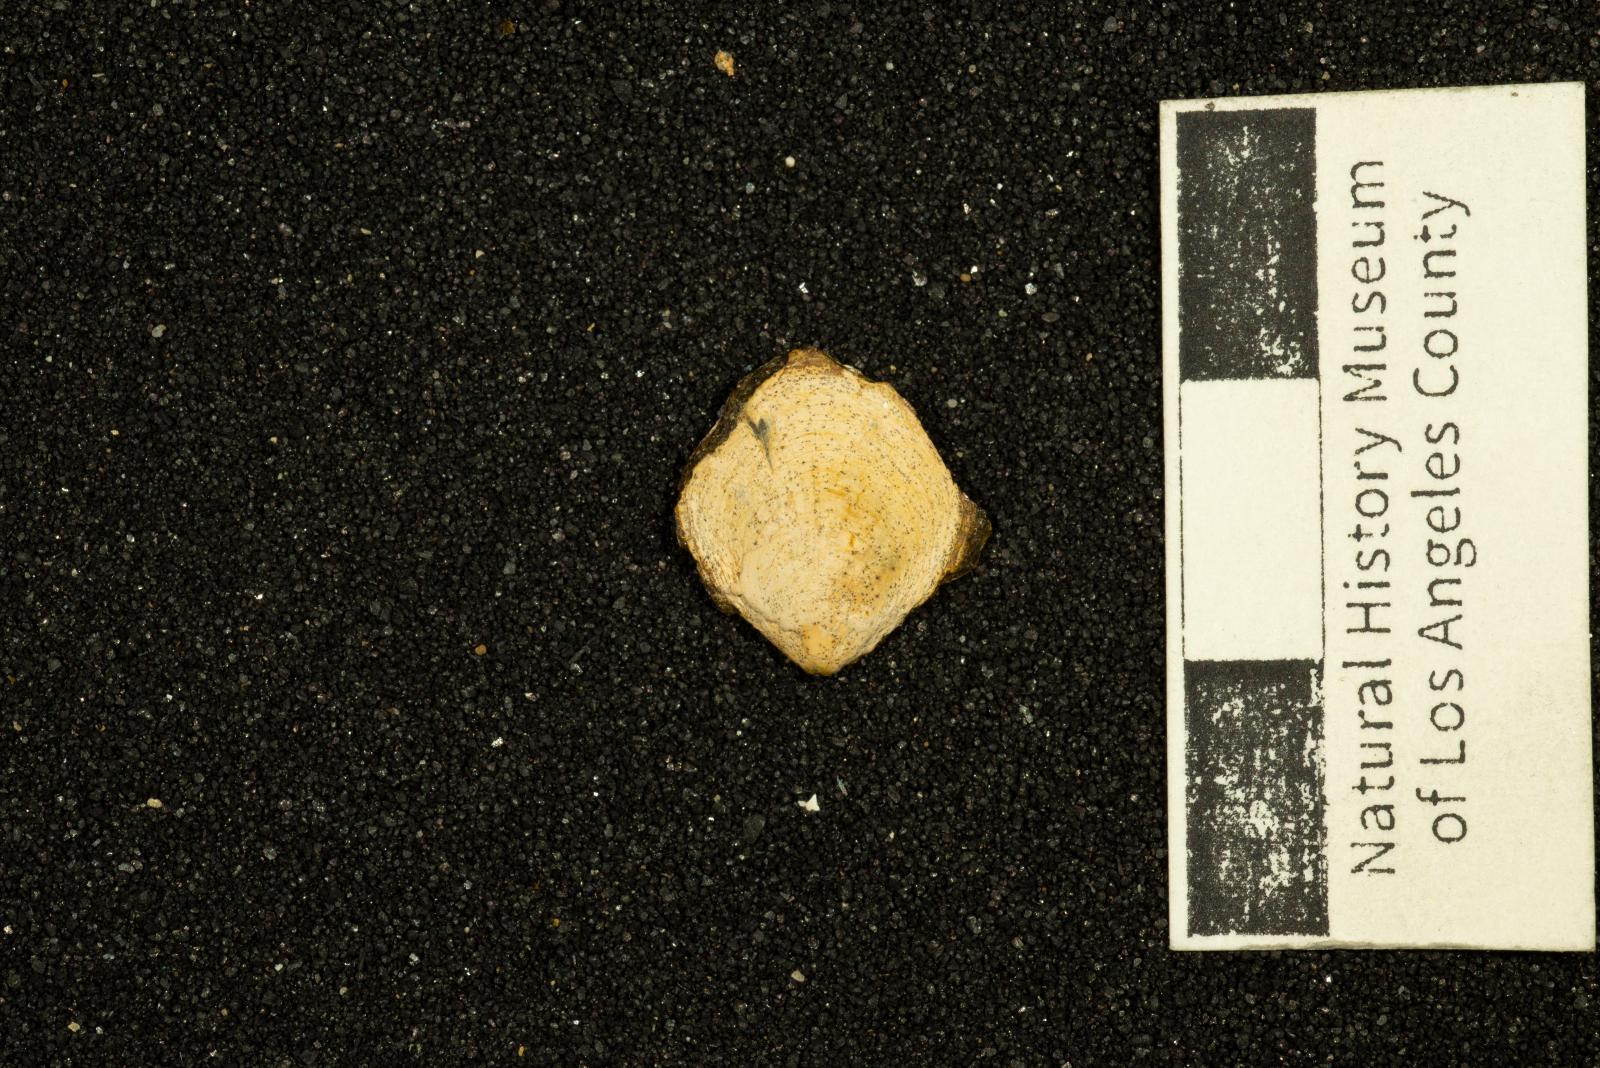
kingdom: Animalia
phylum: Mollusca
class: Bivalvia
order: Pectinida
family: Entoliidae
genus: Syncyclonema
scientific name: Syncyclonema Pecten operculiformis
